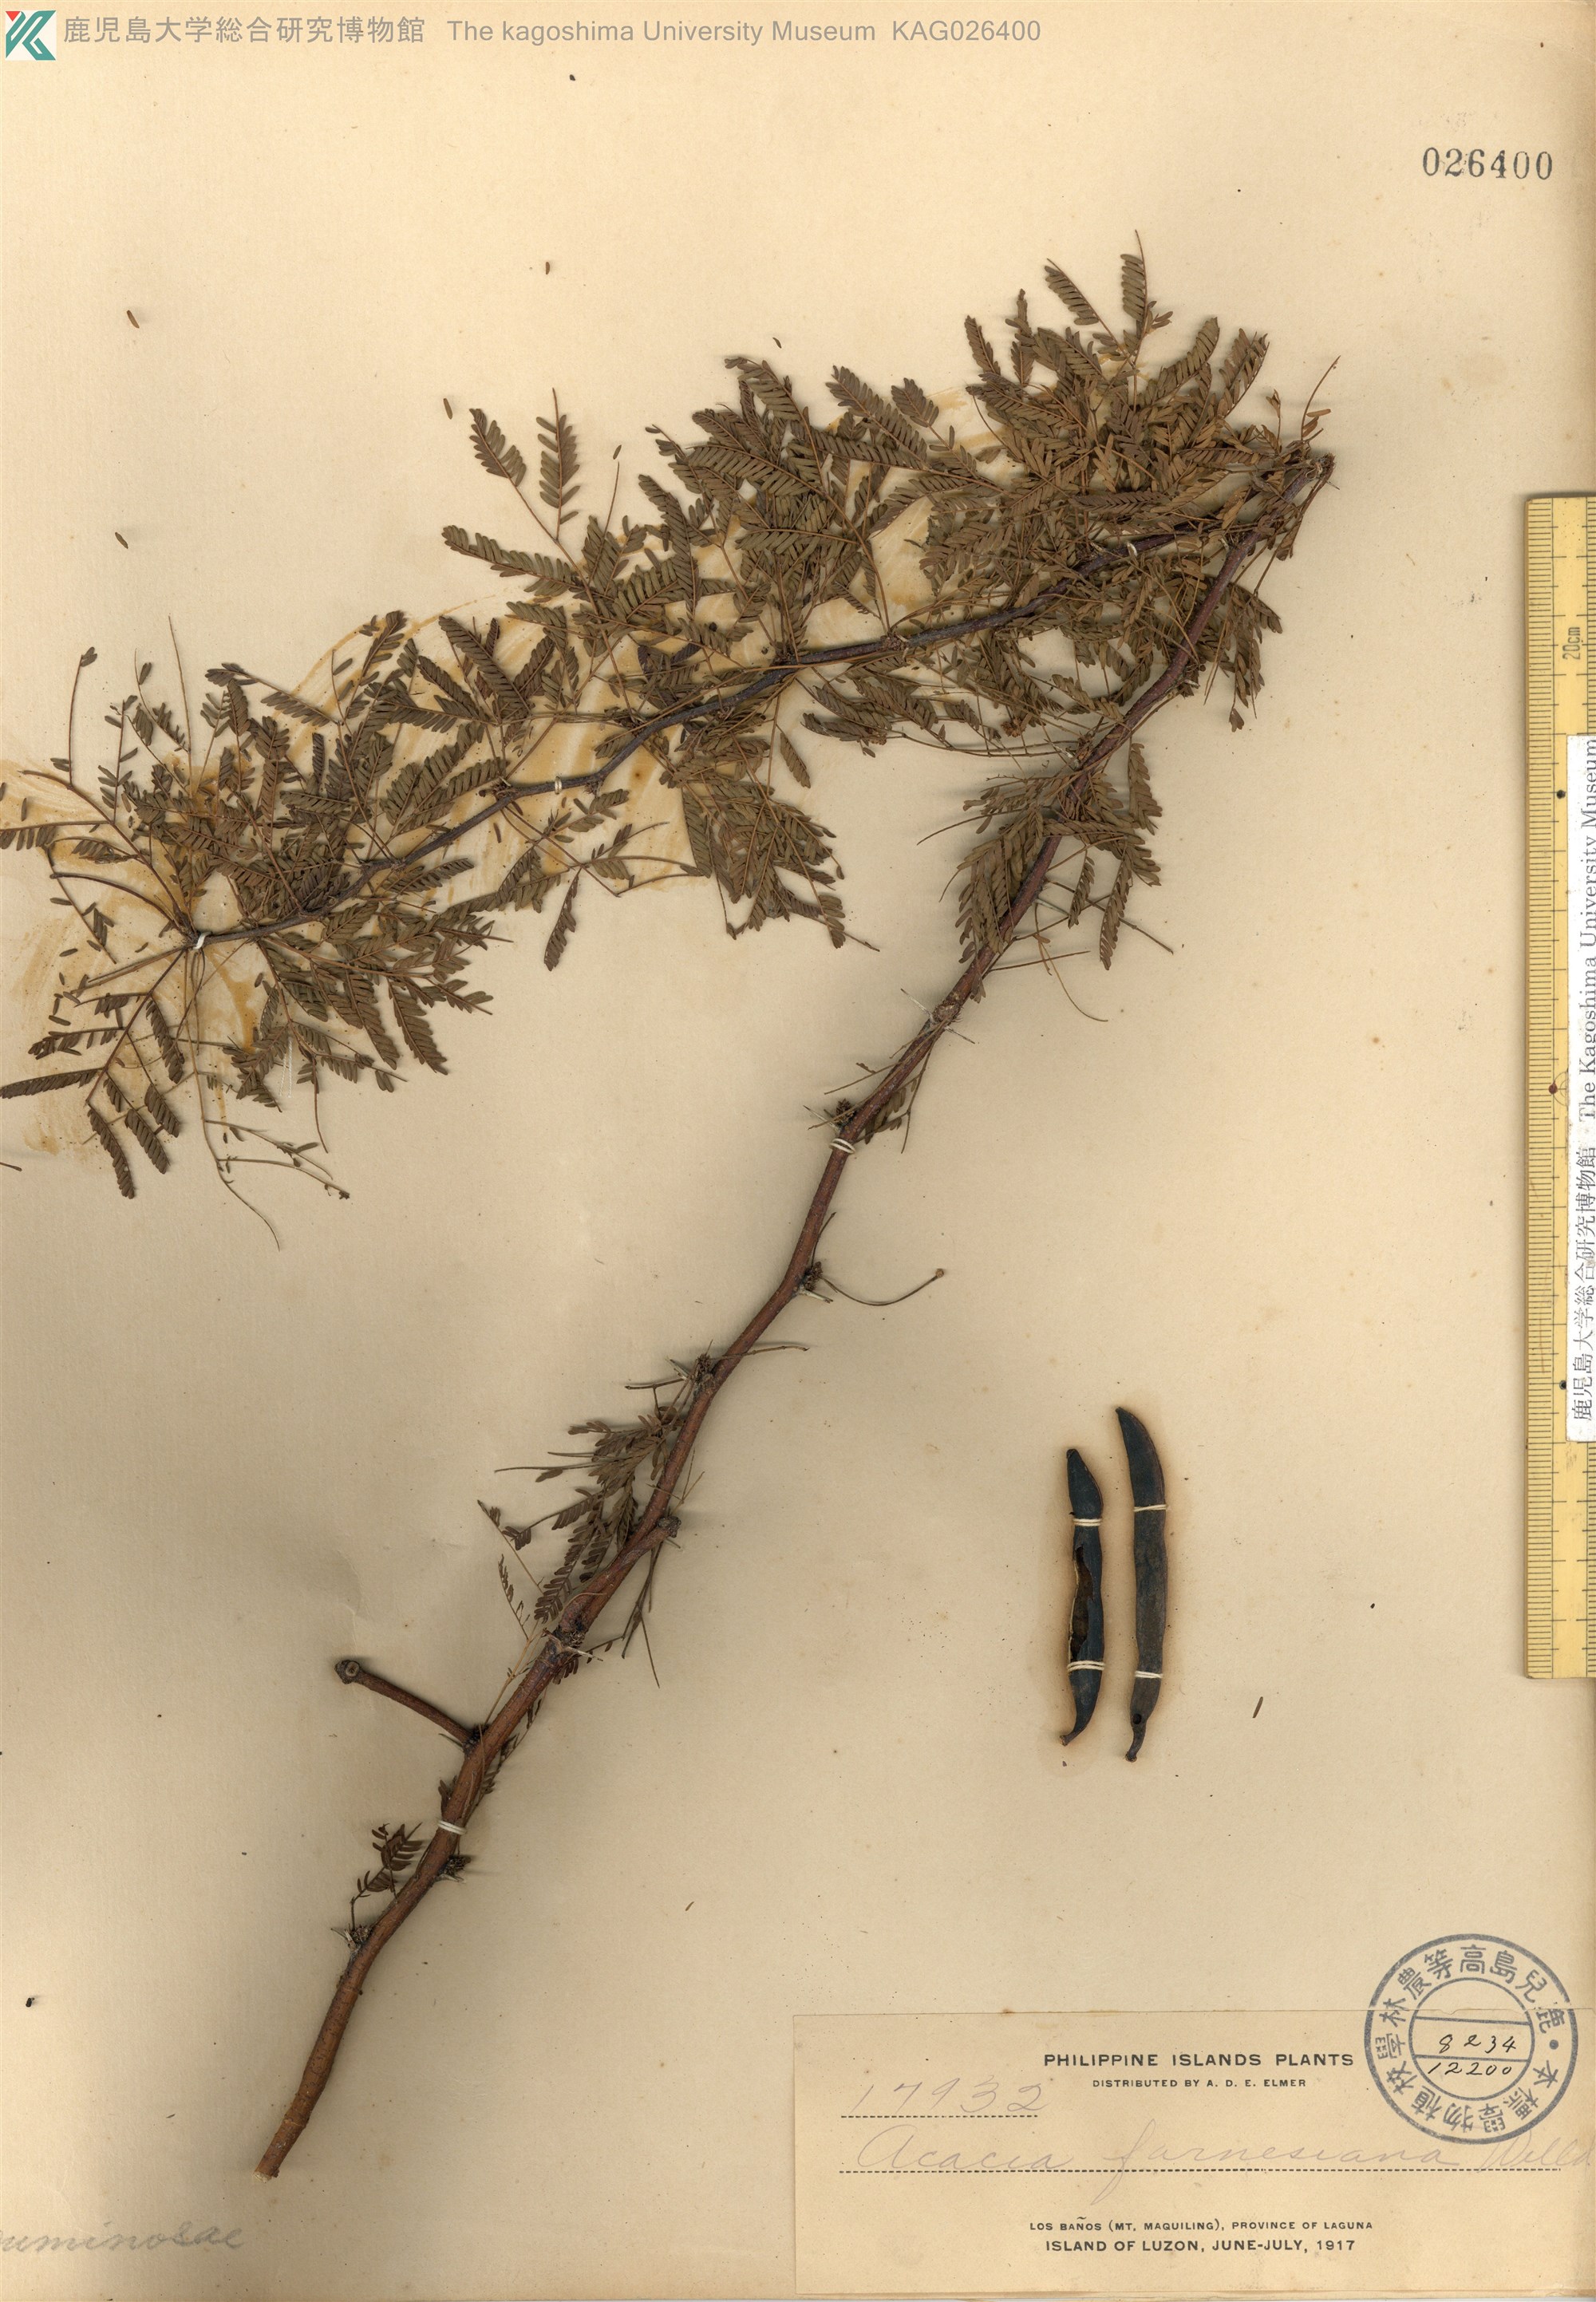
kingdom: Plantae
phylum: Tracheophyta
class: Magnoliopsida
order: Fabales
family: Fabaceae
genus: Vachellia
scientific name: Vachellia farnesiana
